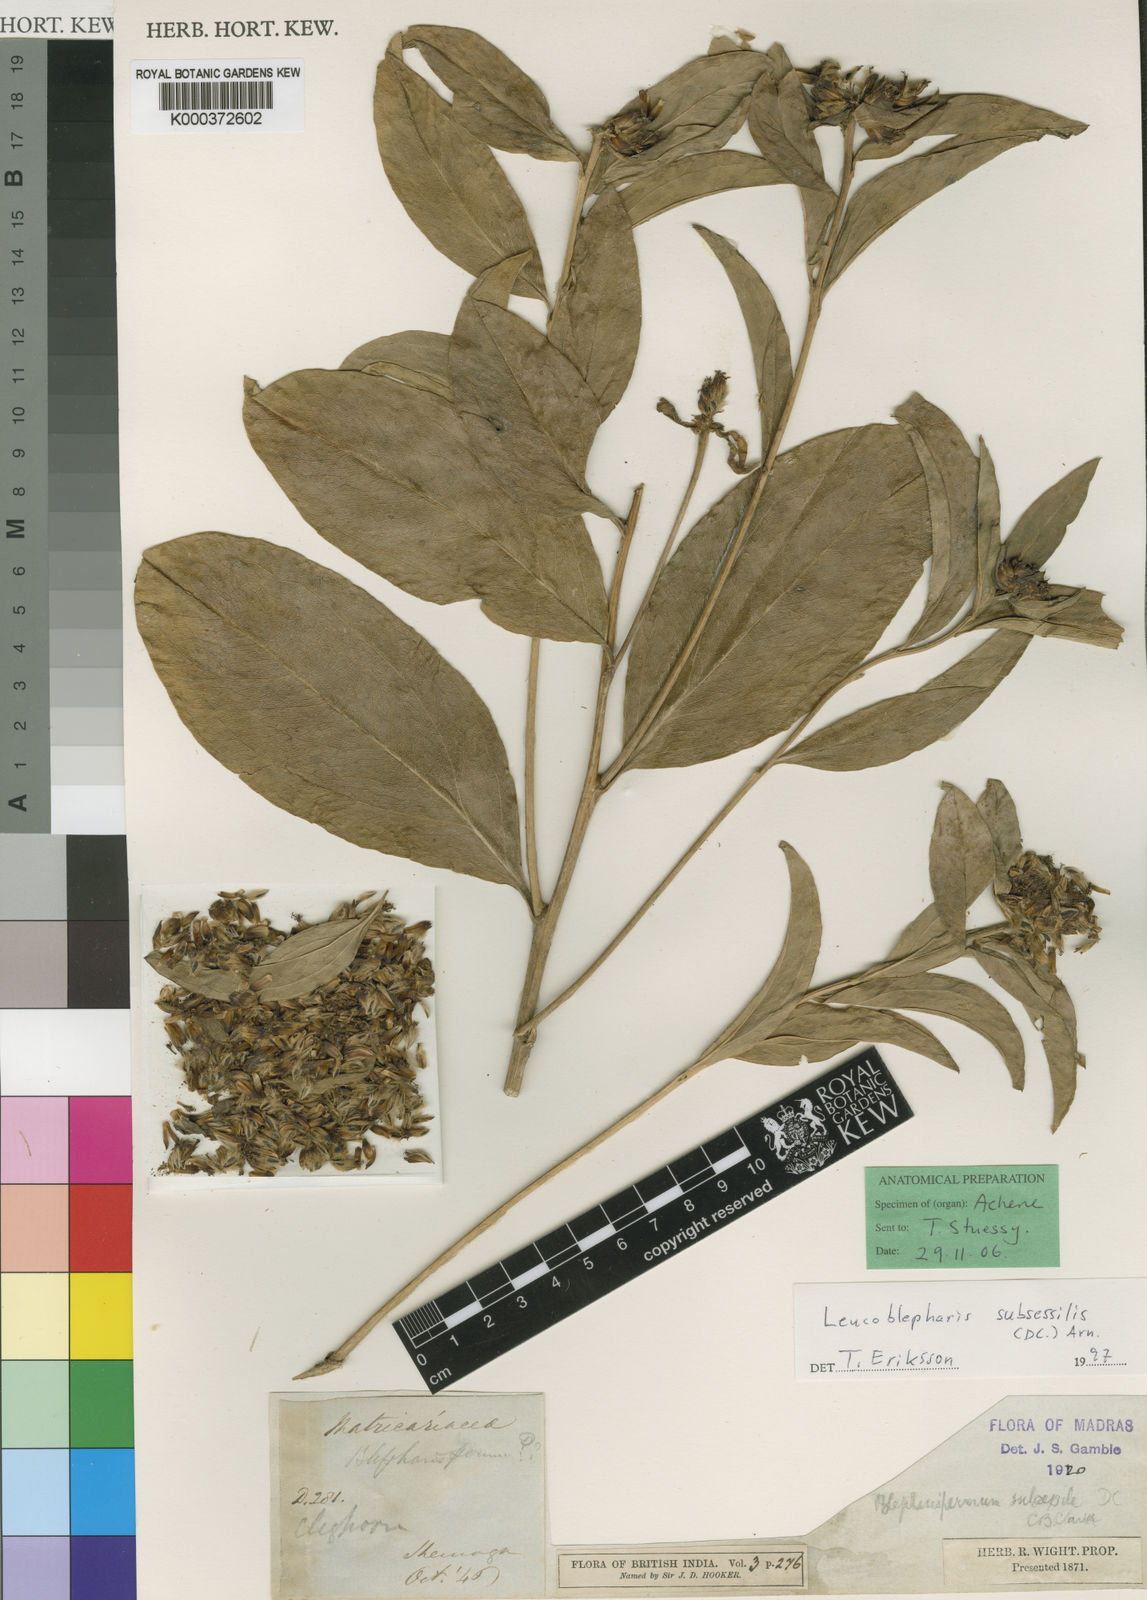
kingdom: Plantae
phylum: Tracheophyta
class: Magnoliopsida
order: Asterales
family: Asteraceae
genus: Leucoblepharis
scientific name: Leucoblepharis subsessilis
